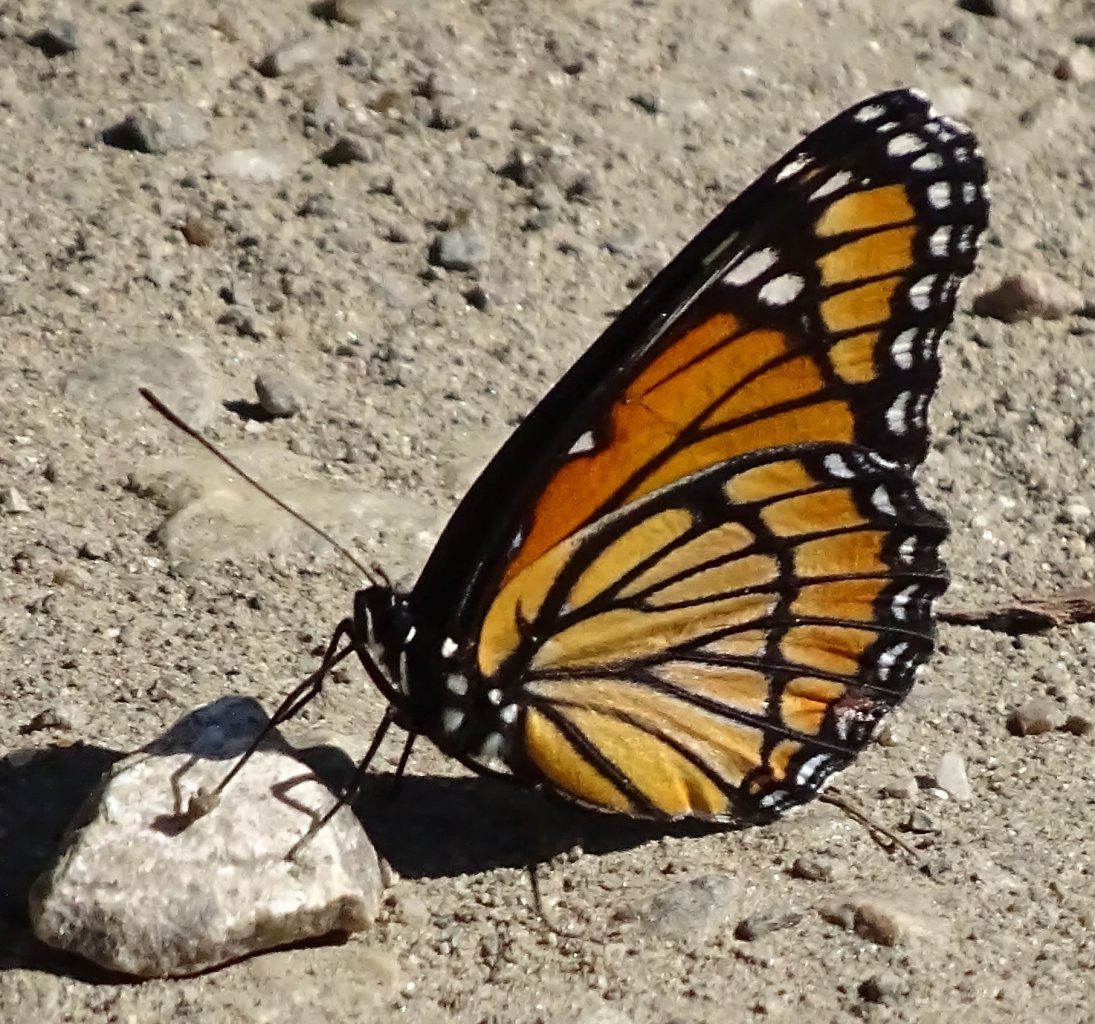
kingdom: Animalia
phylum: Arthropoda
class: Insecta
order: Lepidoptera
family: Nymphalidae
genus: Limenitis
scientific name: Limenitis archippus
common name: Viceroy
